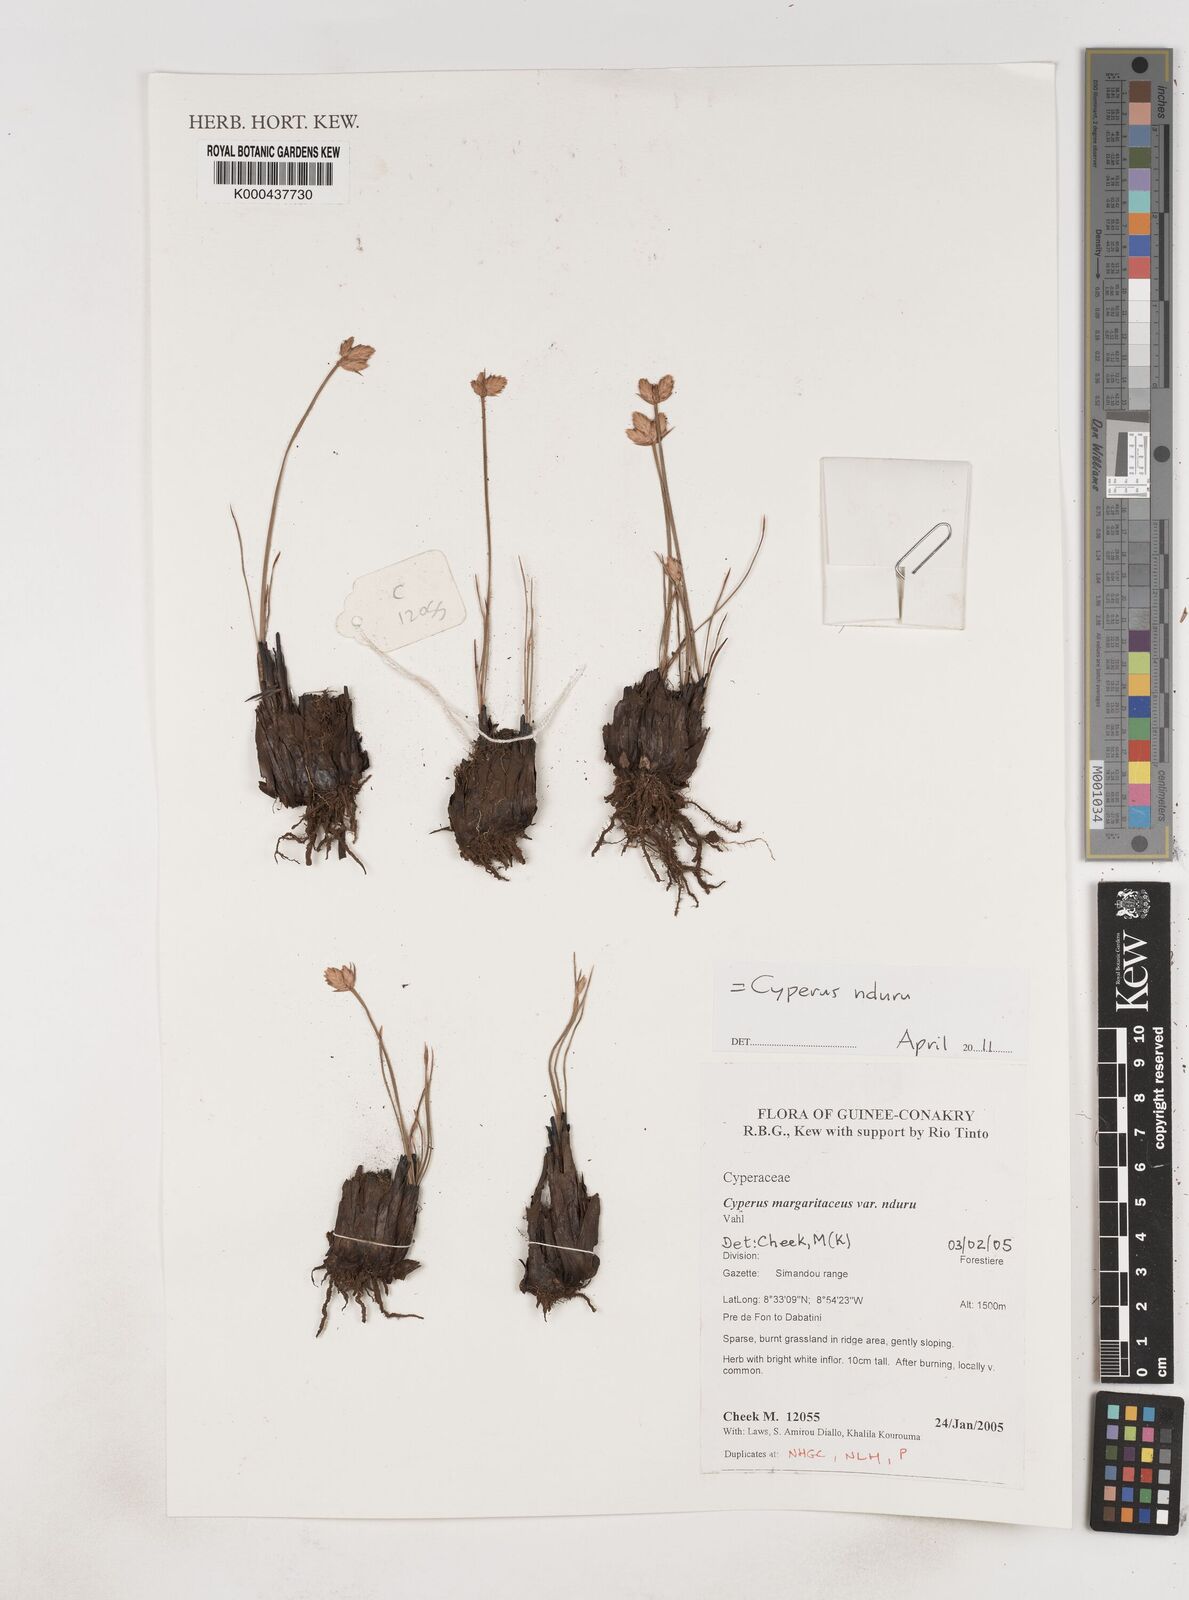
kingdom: Plantae
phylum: Tracheophyta
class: Liliopsida
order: Poales
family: Cyperaceae
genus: Cyperus
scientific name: Cyperus nduru
